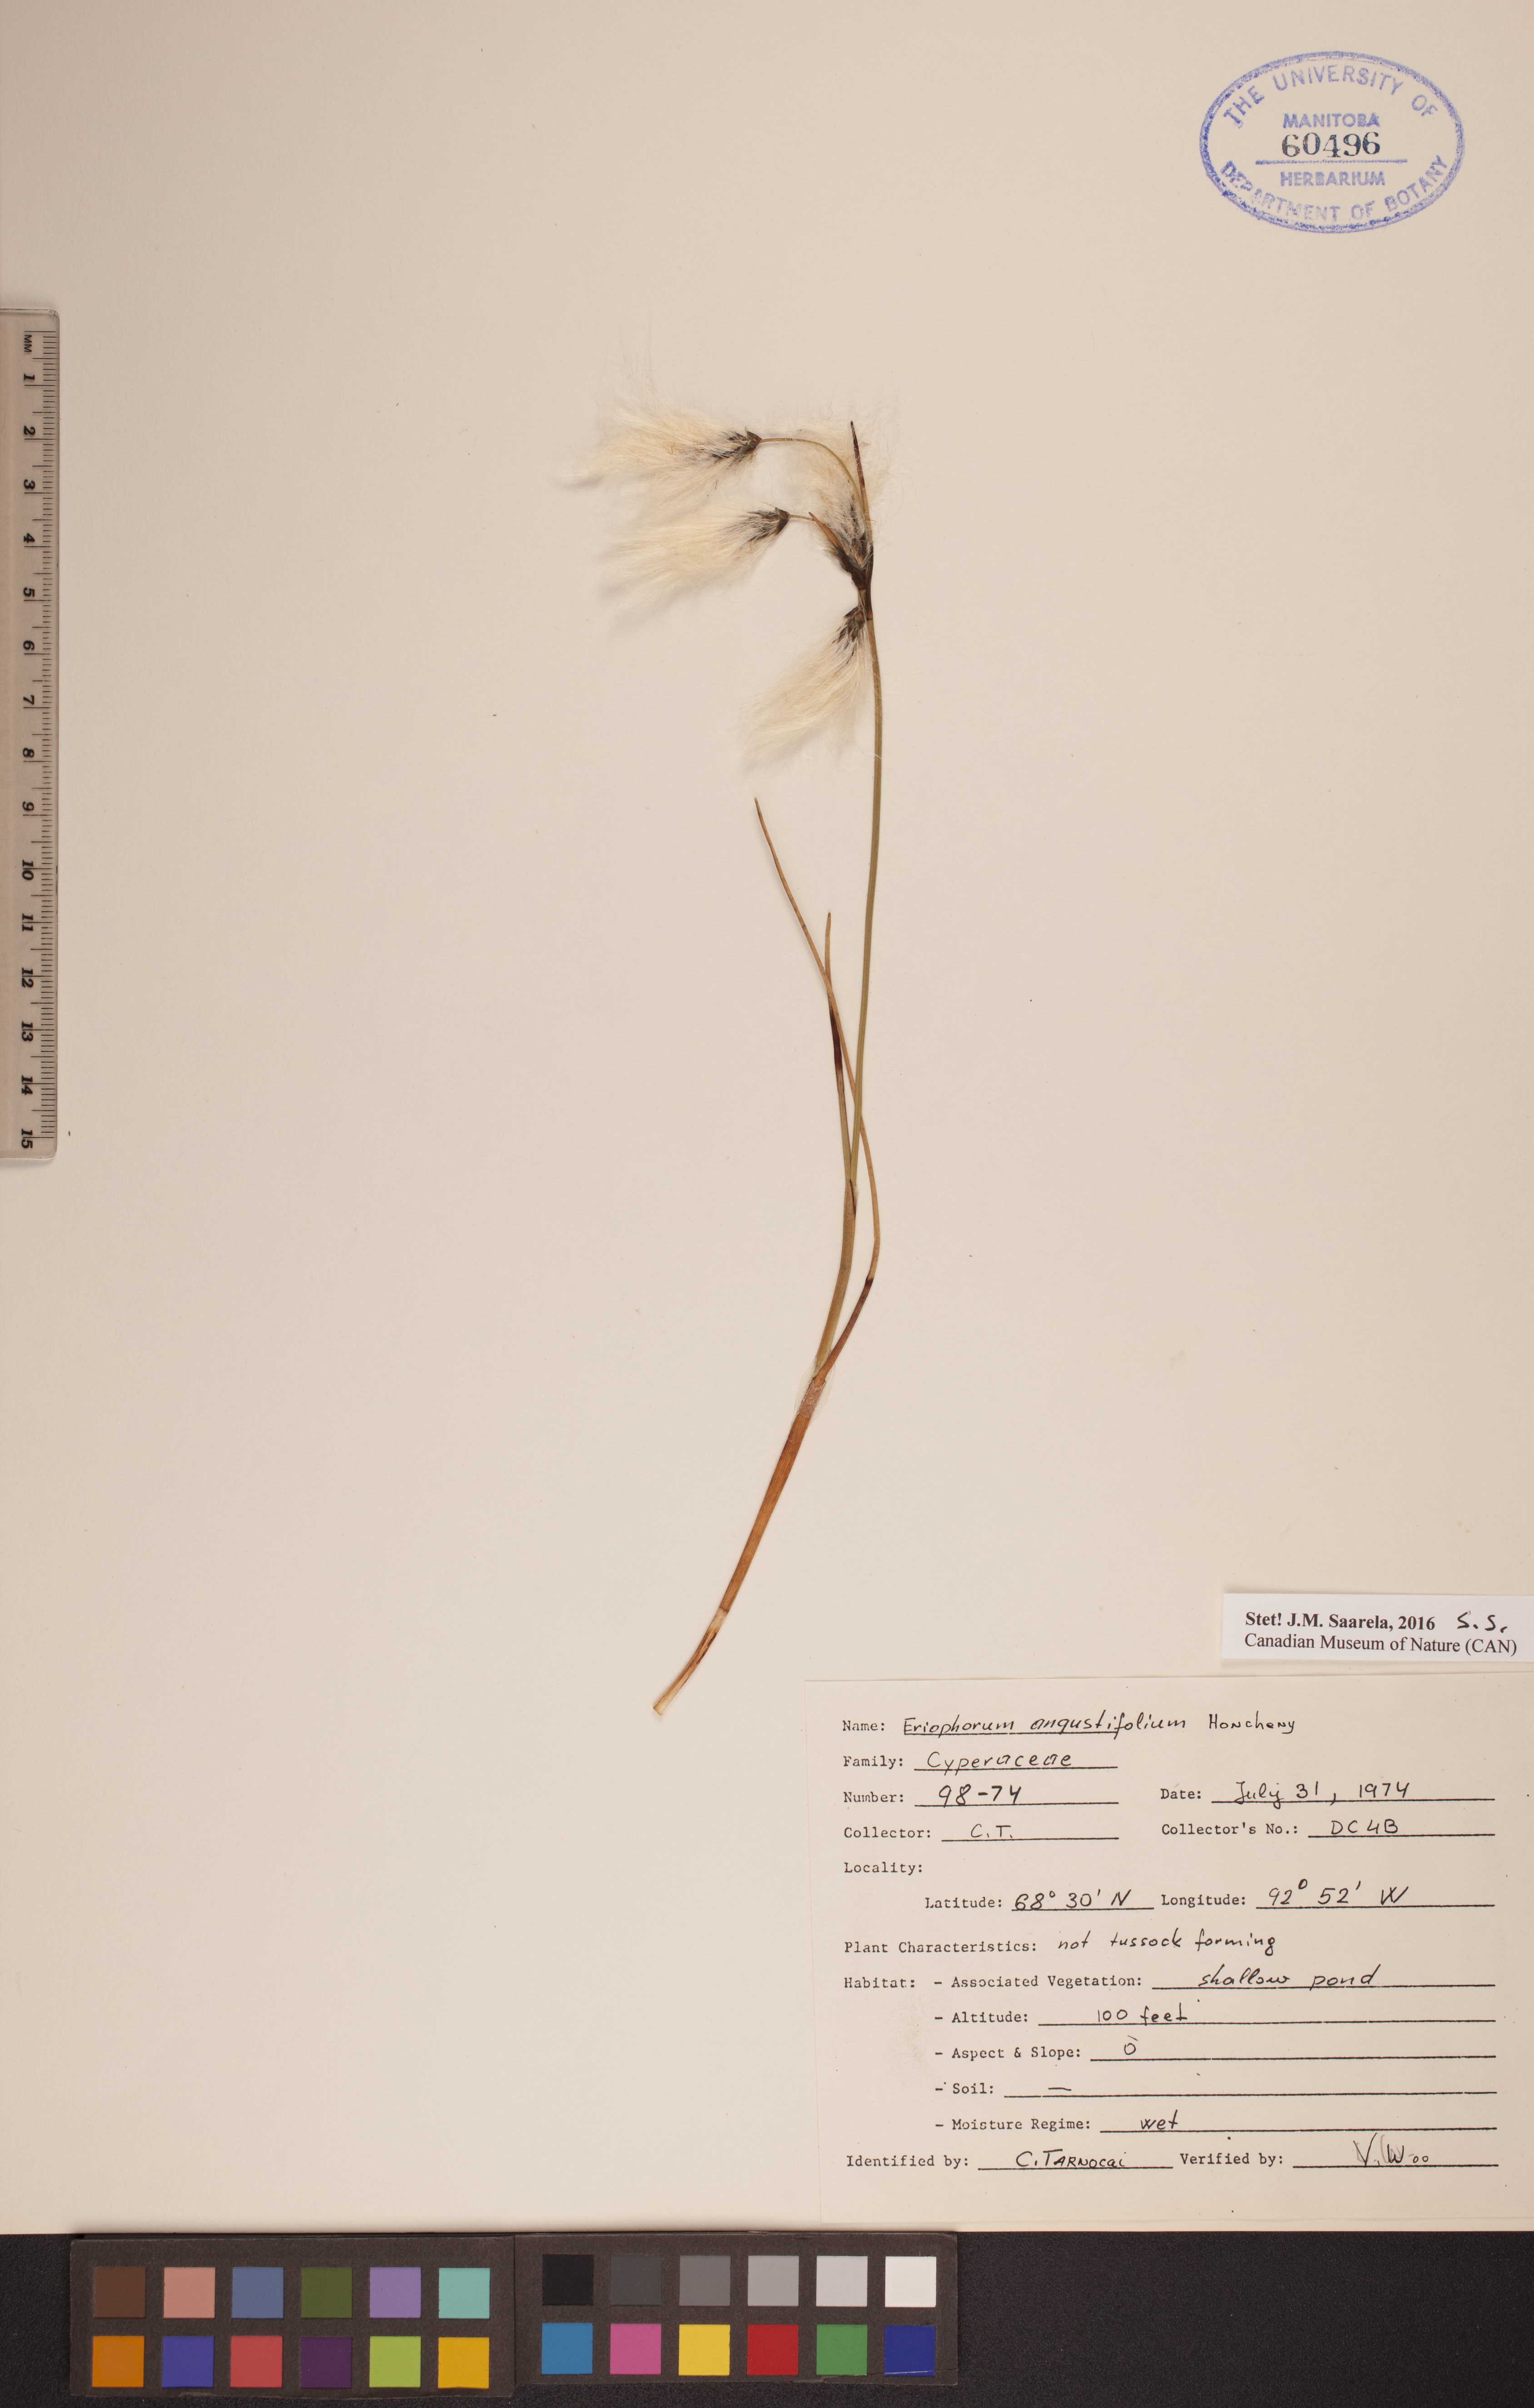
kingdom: Plantae
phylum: Tracheophyta
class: Liliopsida
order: Poales
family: Cyperaceae
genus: Eriophorum
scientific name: Eriophorum angustifolium
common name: Common cottongrass
